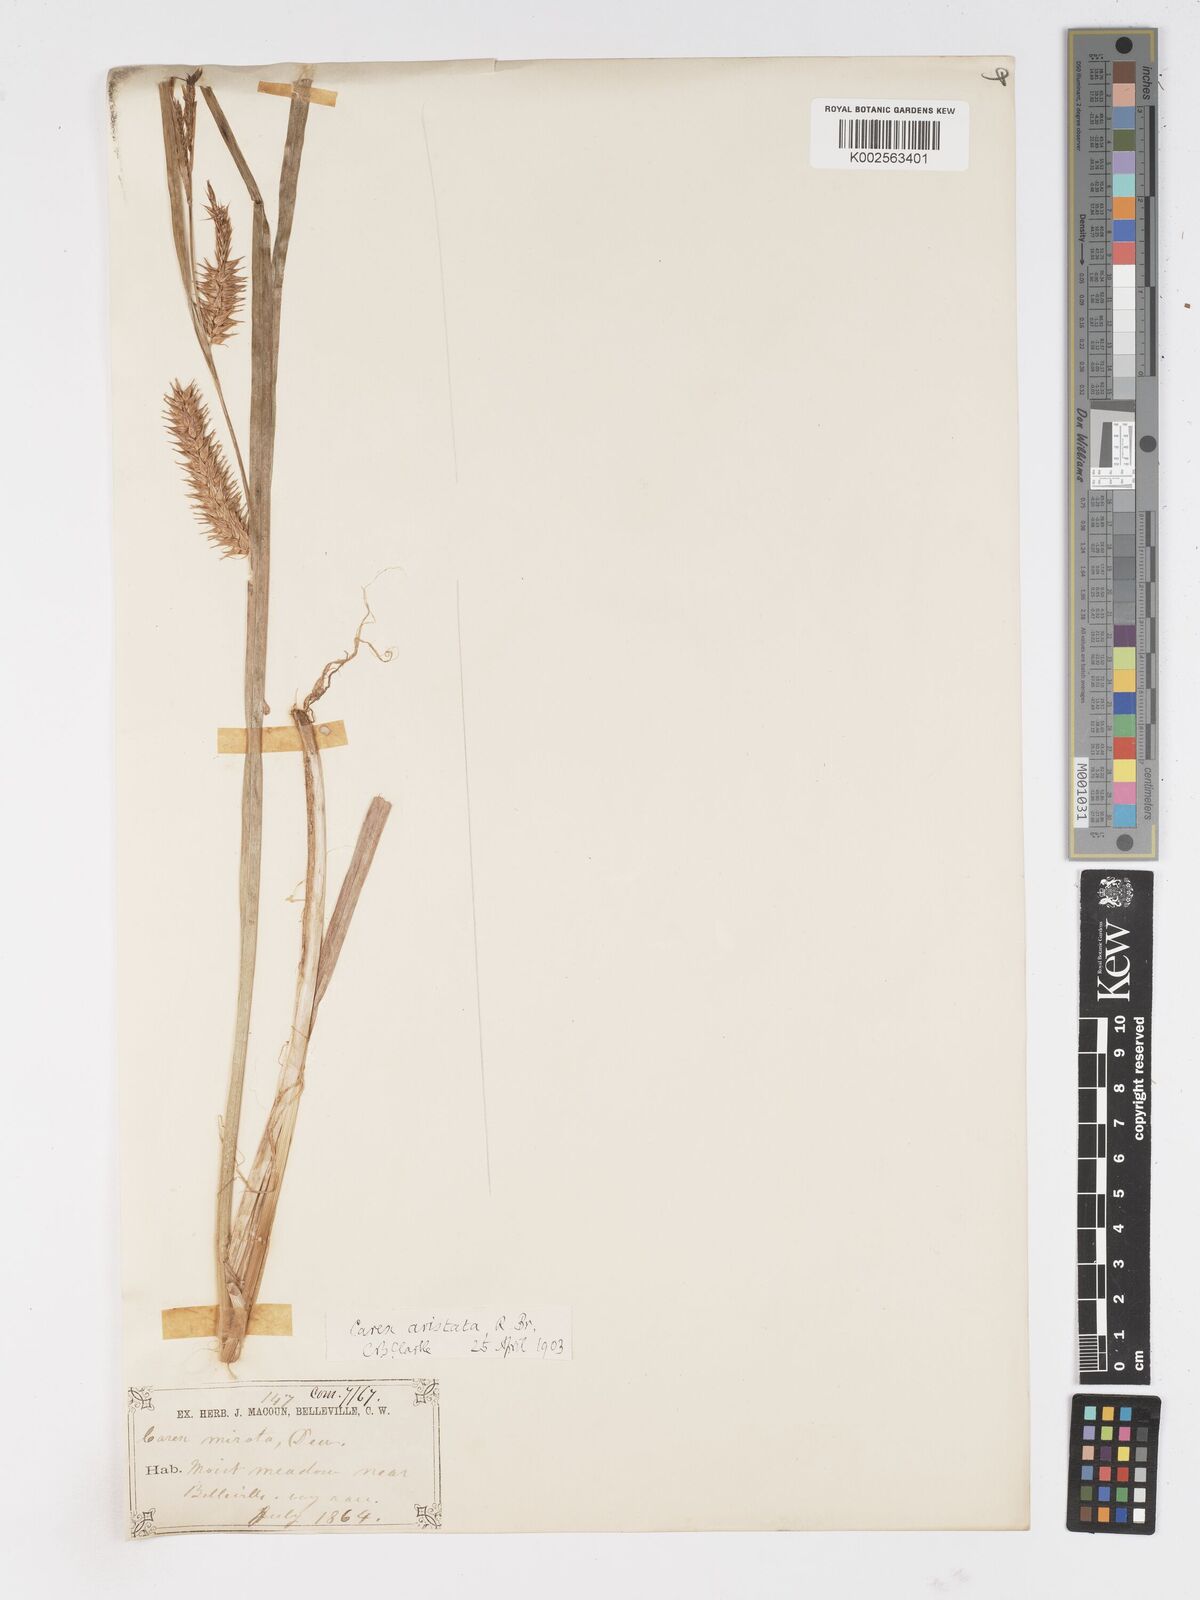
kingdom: Plantae
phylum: Tracheophyta
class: Liliopsida
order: Poales
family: Cyperaceae
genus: Carex
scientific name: Carex atherodes
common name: Wheat sedge
